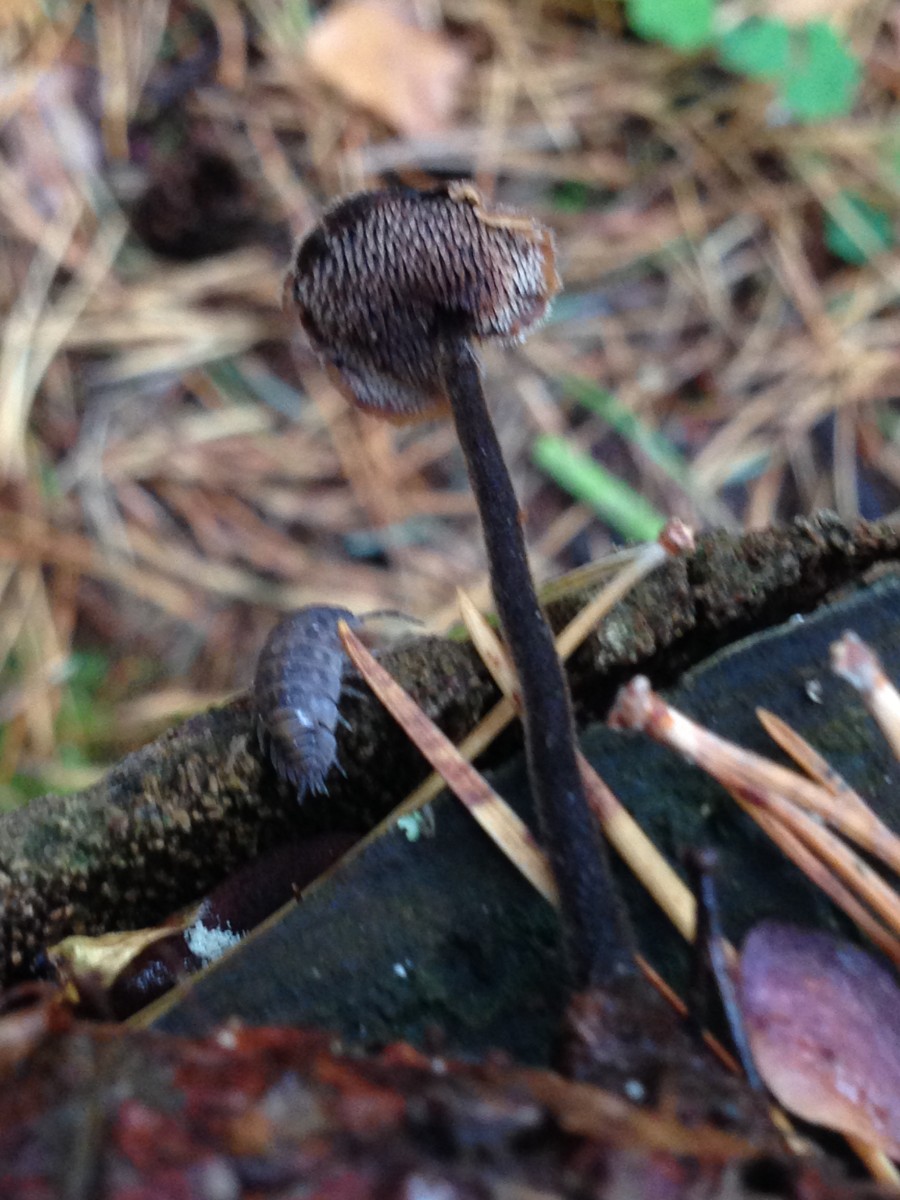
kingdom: Fungi
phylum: Basidiomycota
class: Agaricomycetes
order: Russulales
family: Auriscalpiaceae
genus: Auriscalpium
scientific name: Auriscalpium vulgare
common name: koglepigsvamp
